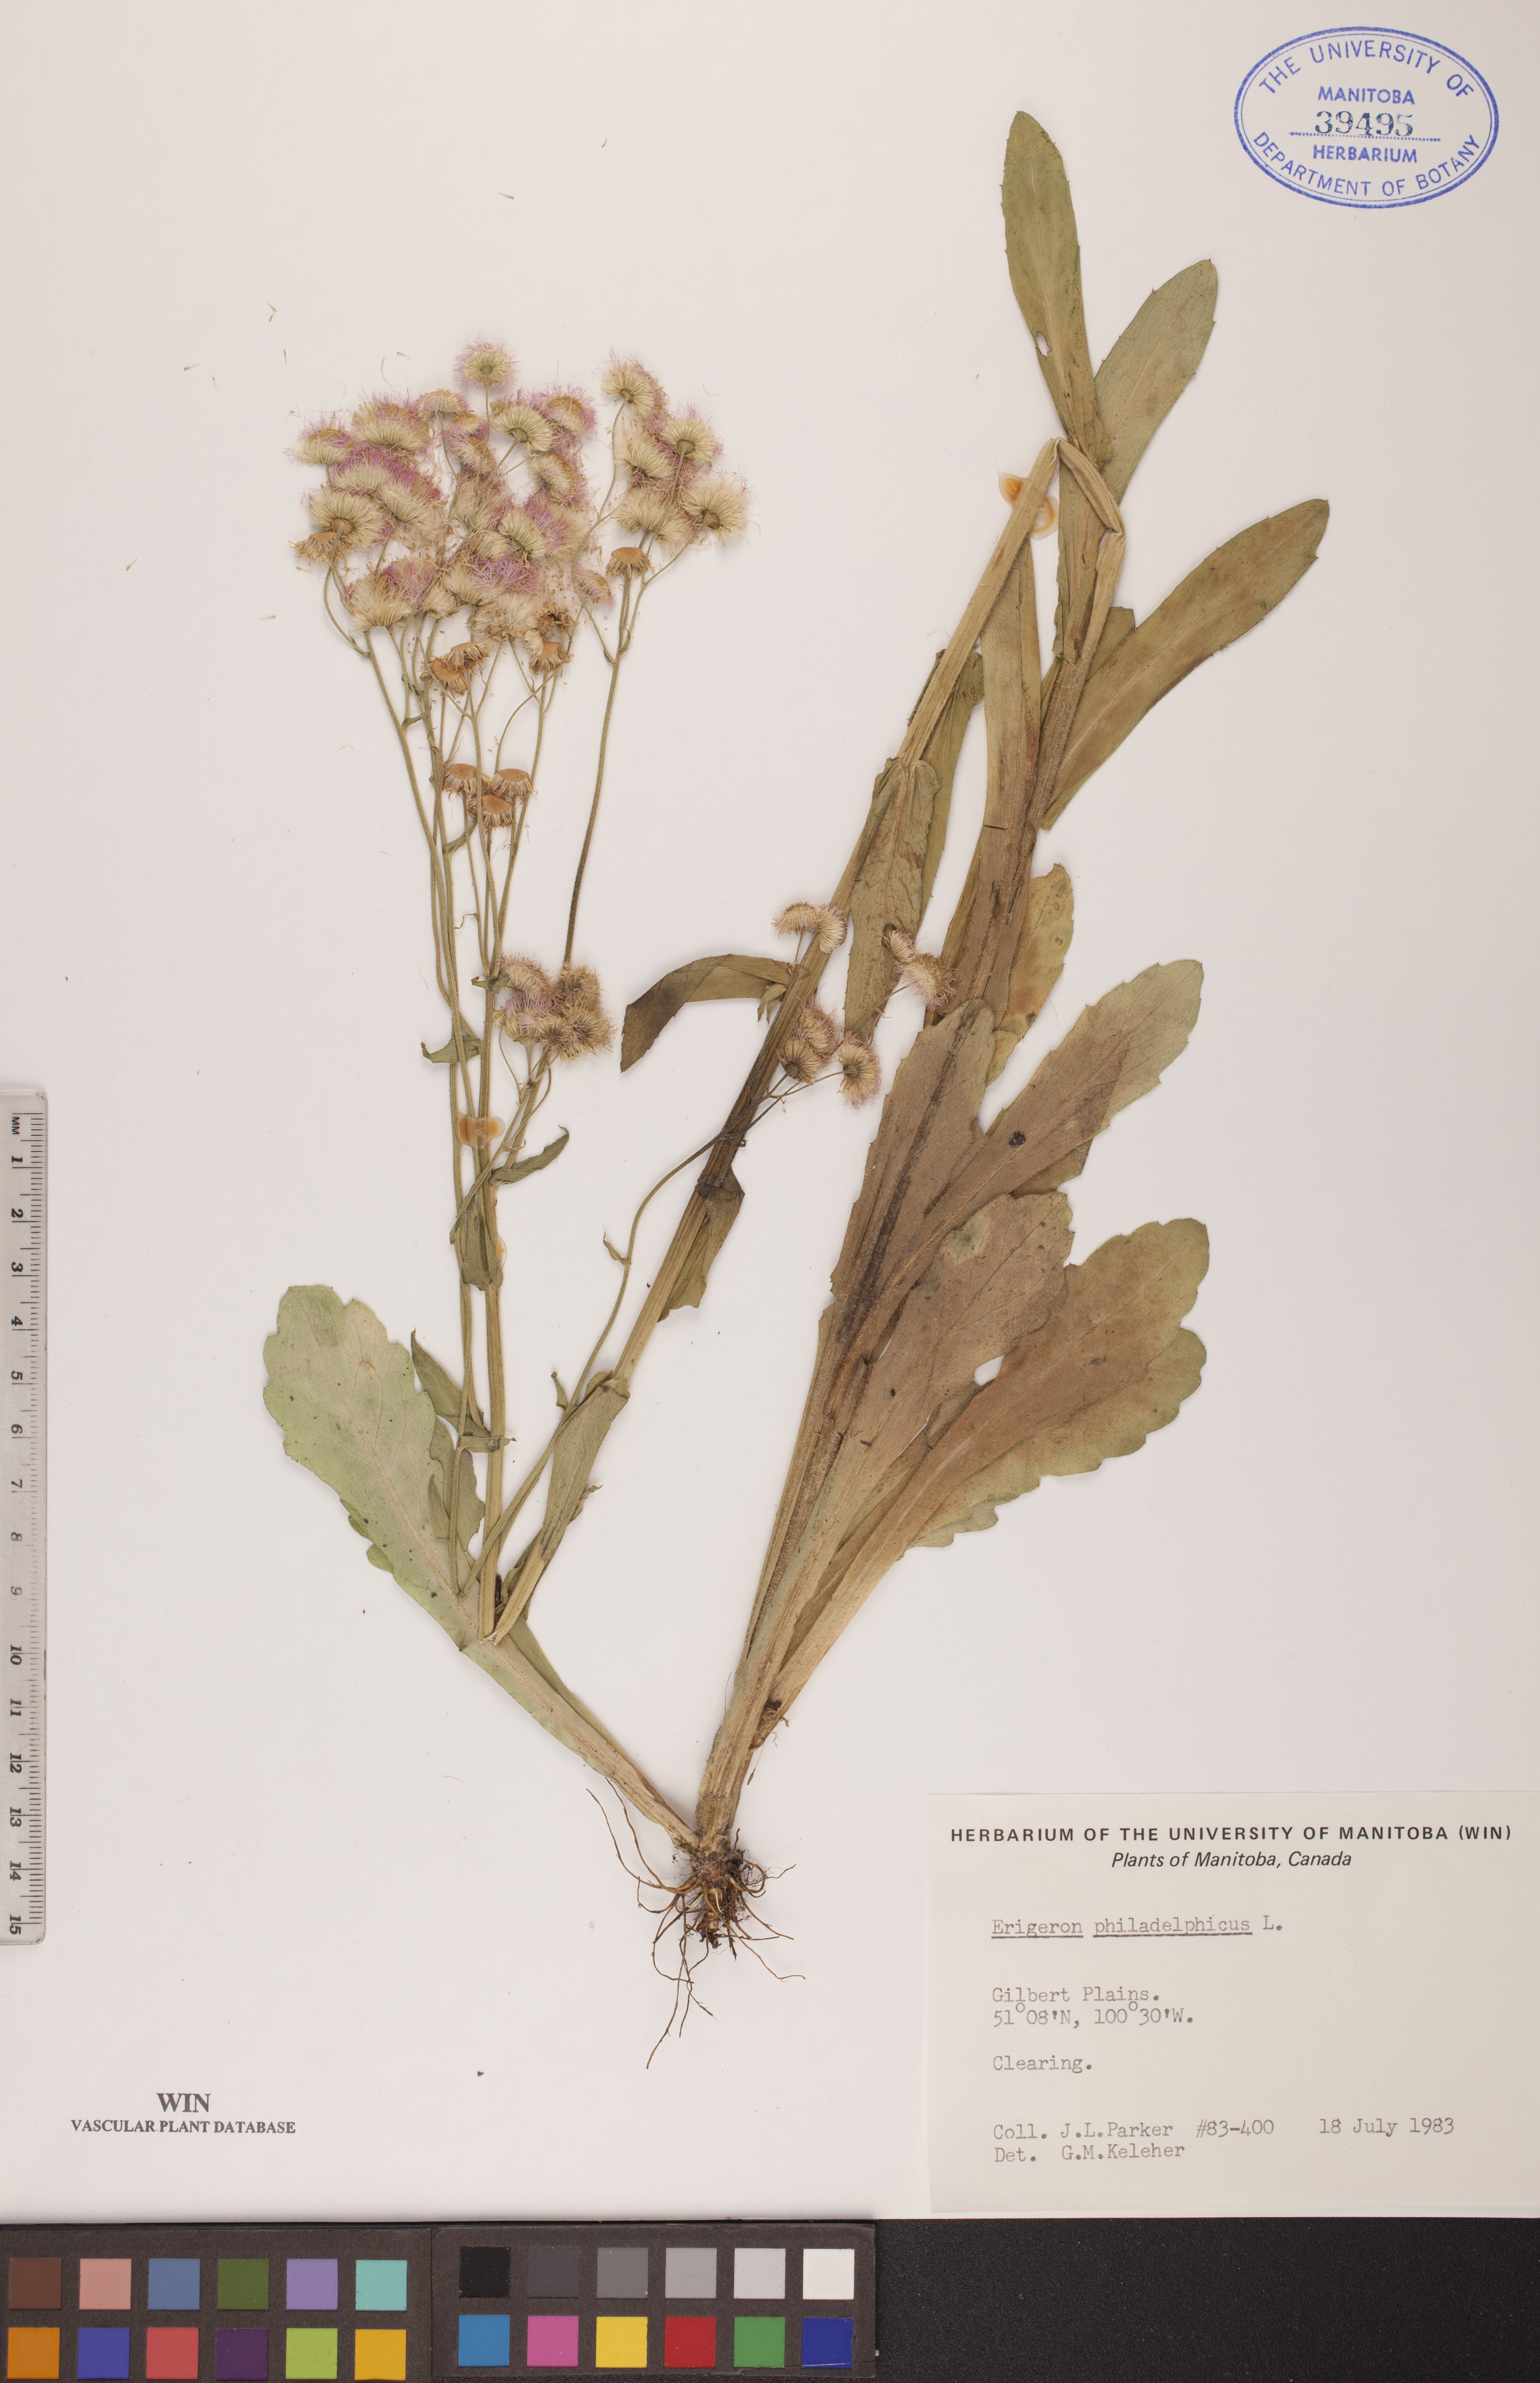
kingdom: Plantae
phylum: Tracheophyta
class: Magnoliopsida
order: Asterales
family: Asteraceae
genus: Erigeron
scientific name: Erigeron philadelphicus
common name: Robin's-plantain
